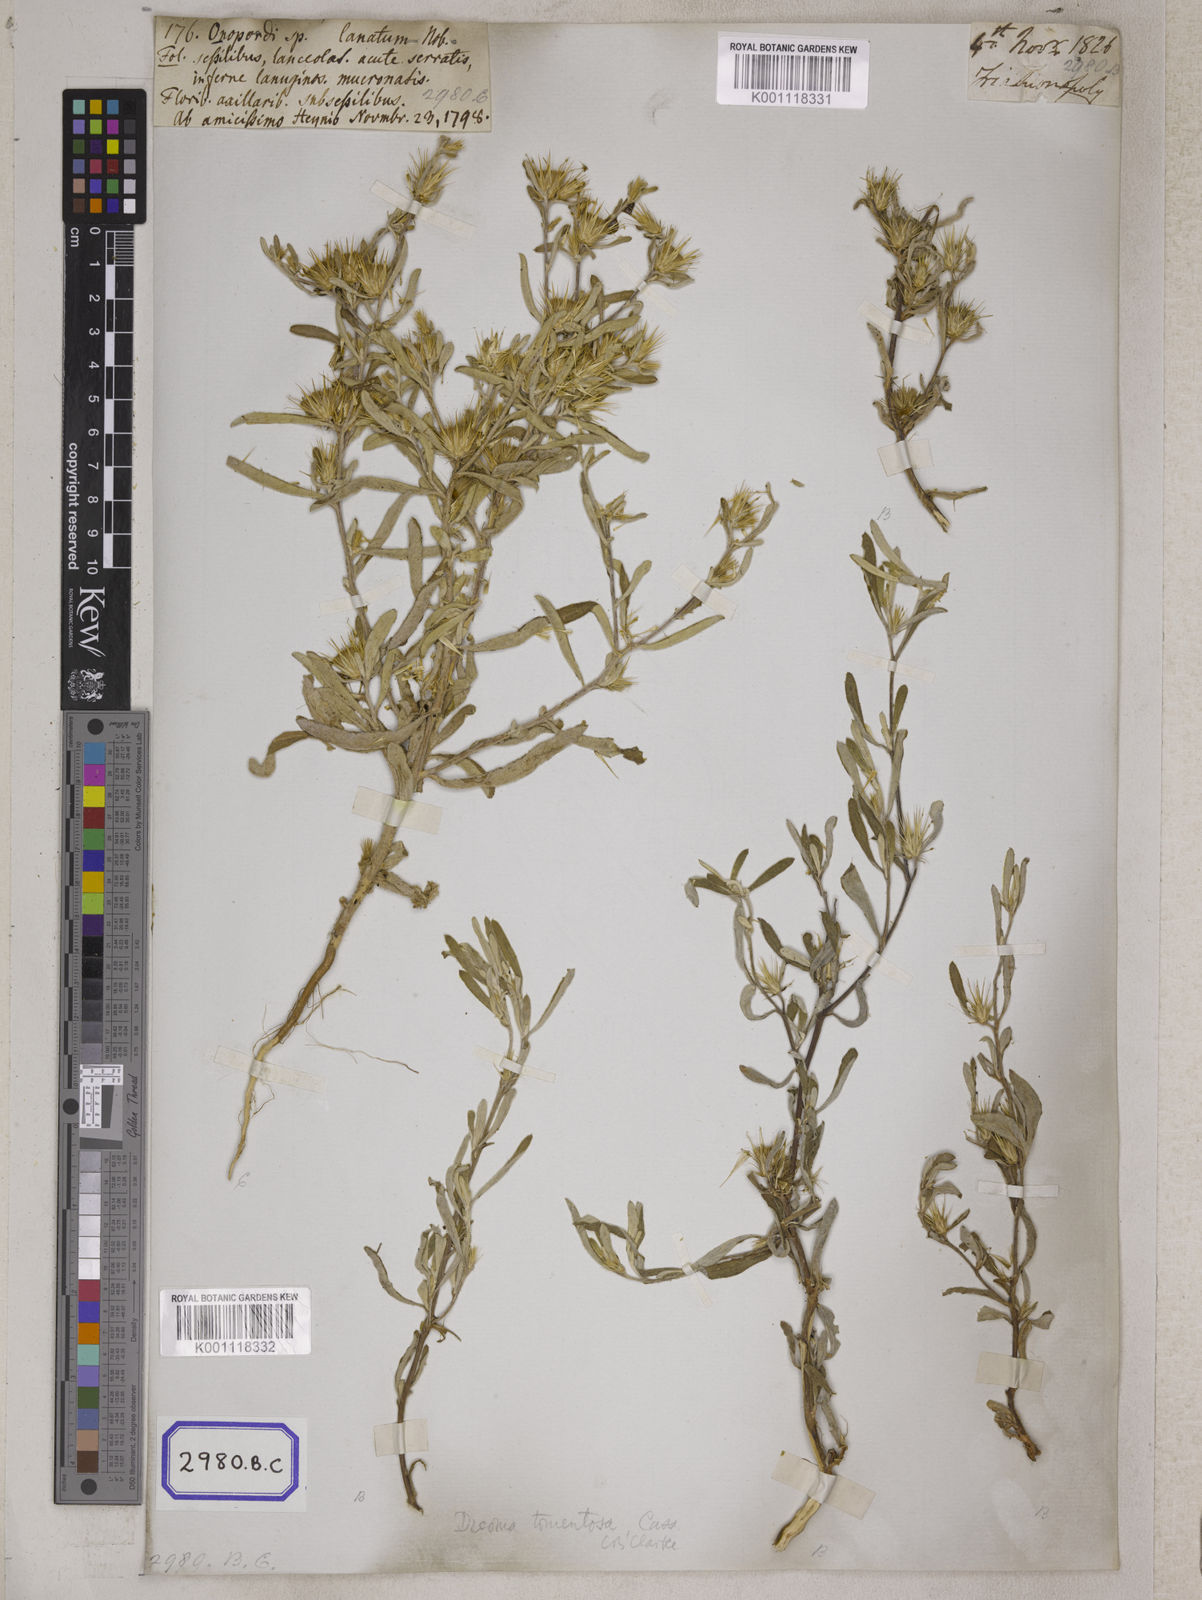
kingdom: Plantae
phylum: Tracheophyta
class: Magnoliopsida
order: Asterales
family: Asteraceae
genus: Dicoma
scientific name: Dicoma tomentosa
